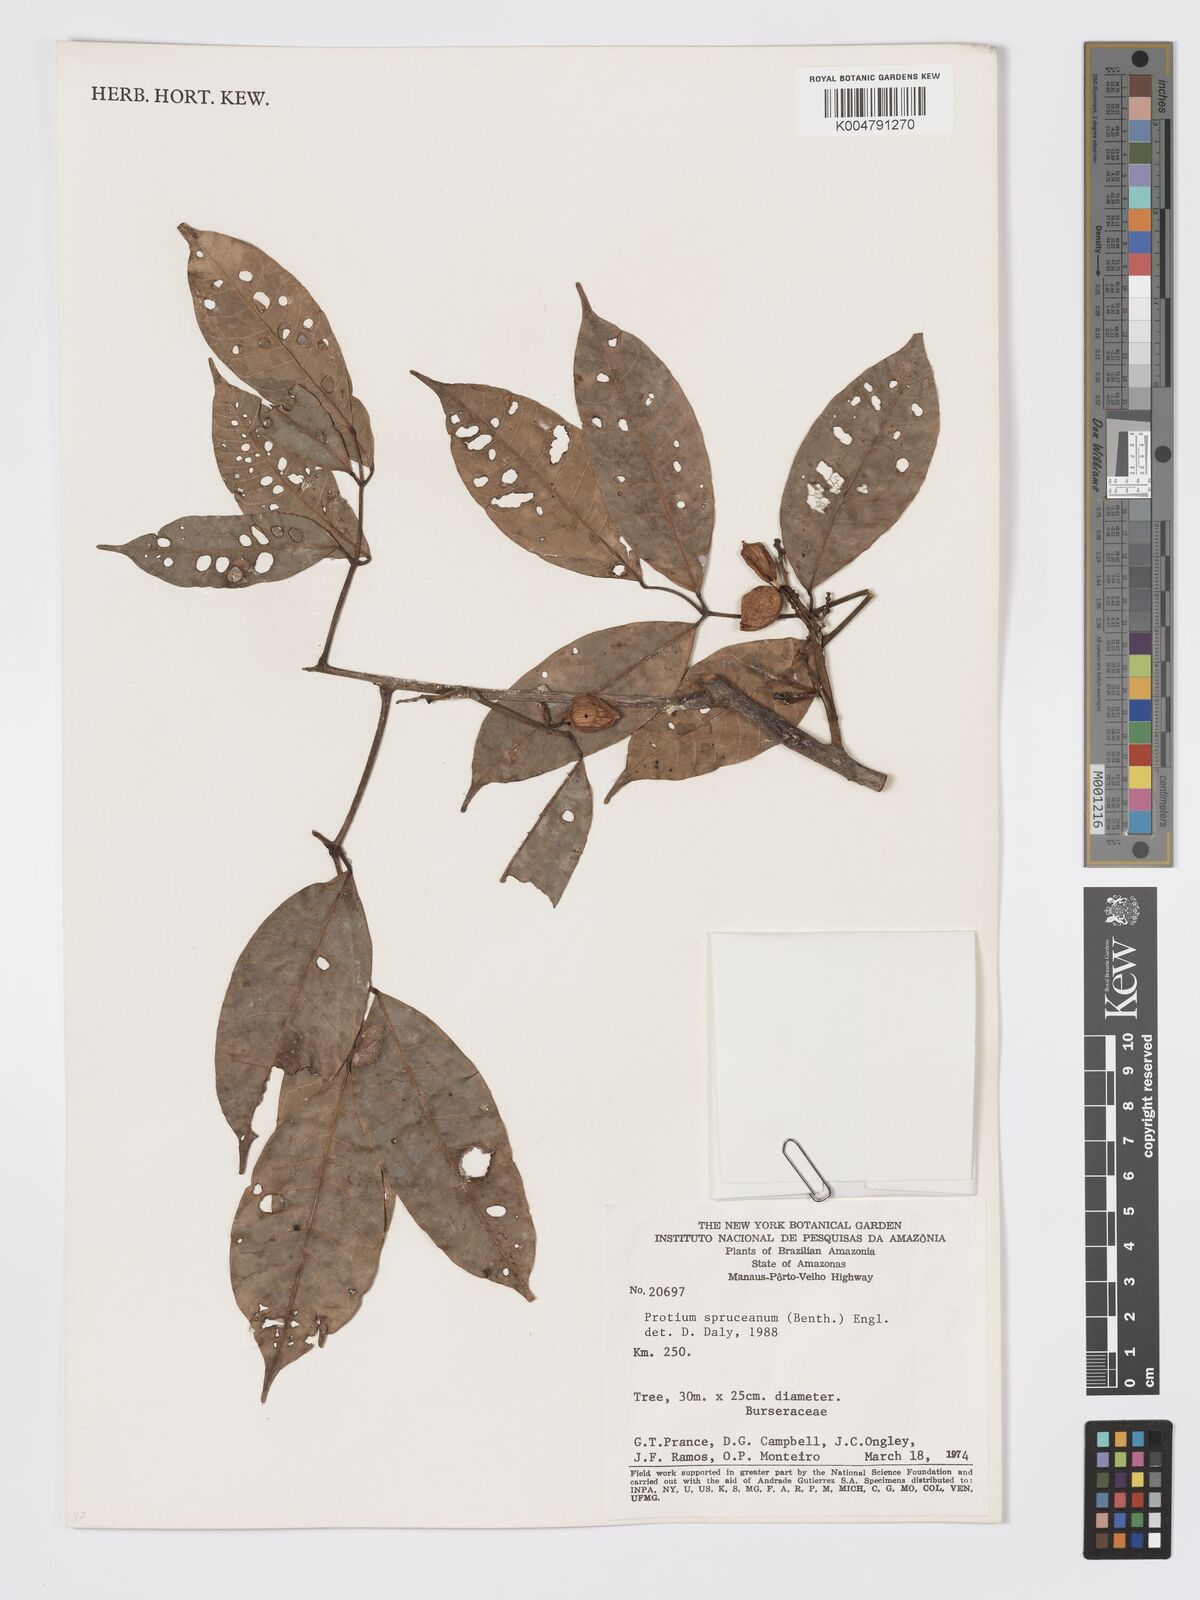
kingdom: Plantae
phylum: Tracheophyta
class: Magnoliopsida
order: Sapindales
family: Burseraceae
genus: Protium
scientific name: Protium spruceanum
